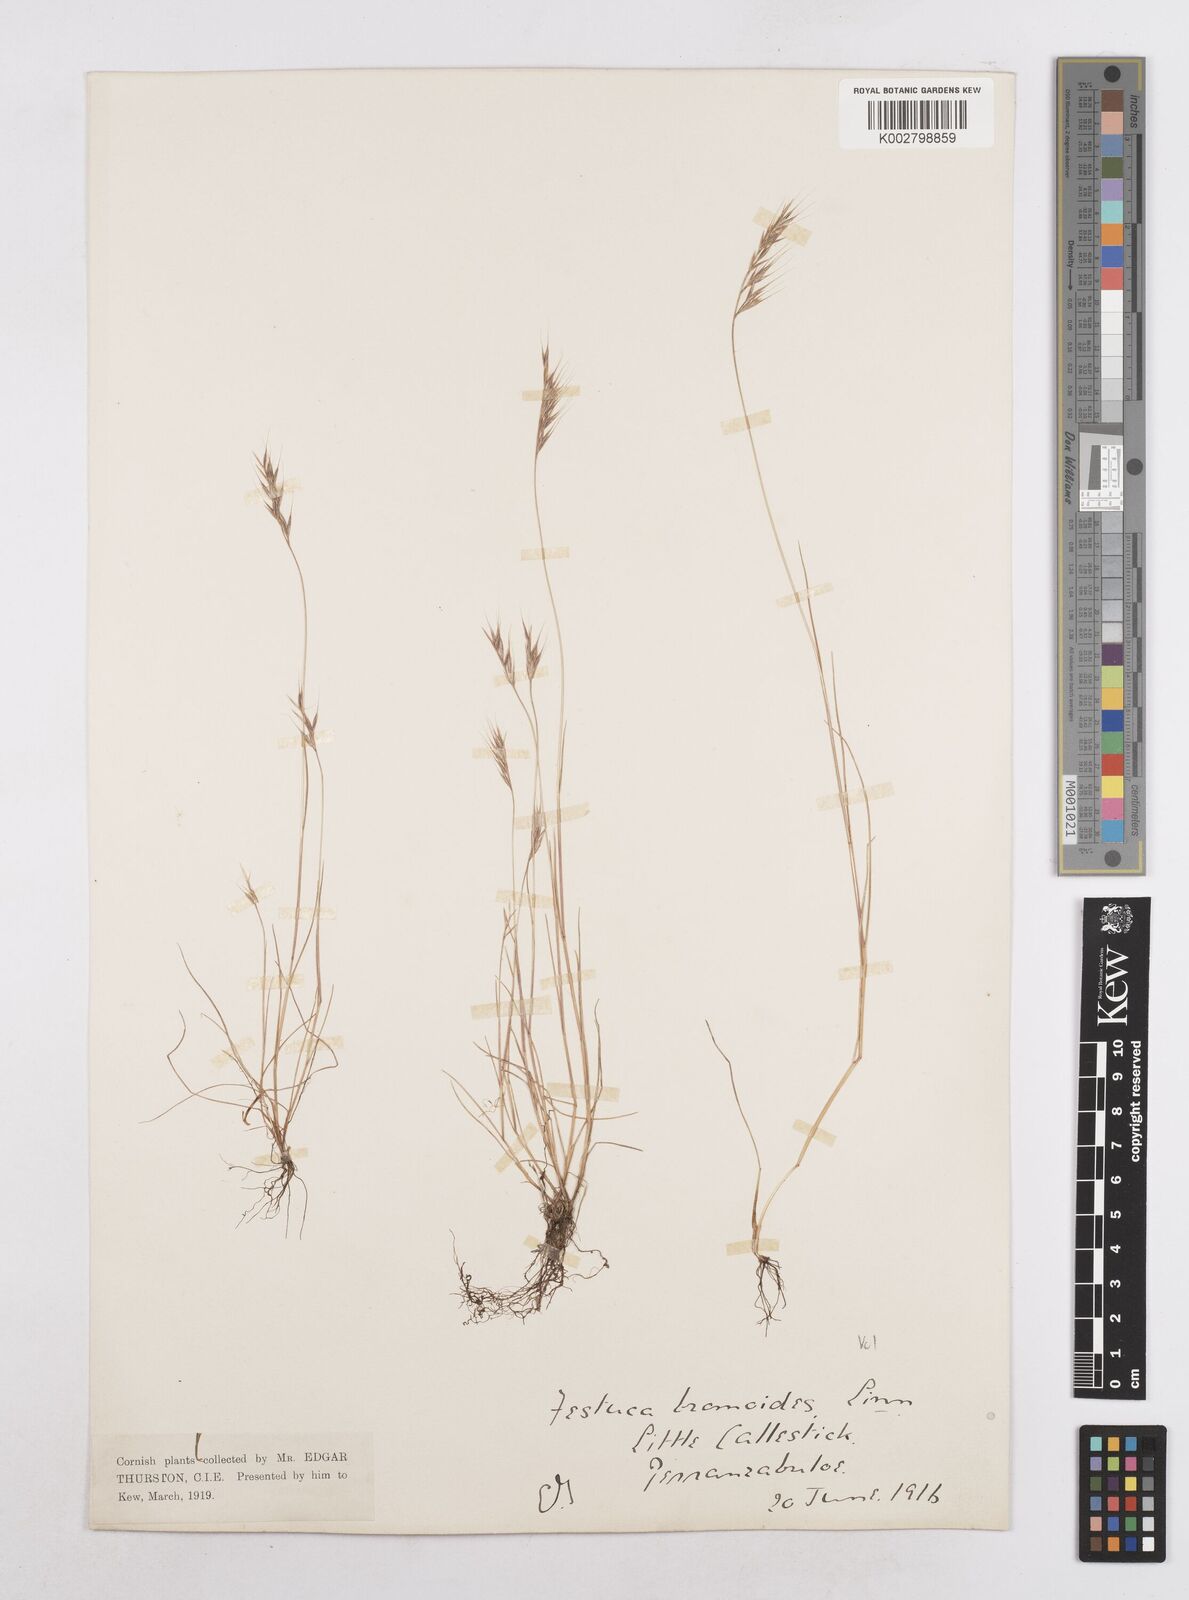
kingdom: Plantae
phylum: Tracheophyta
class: Liliopsida
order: Poales
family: Poaceae
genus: Festuca
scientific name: Festuca bromoides
